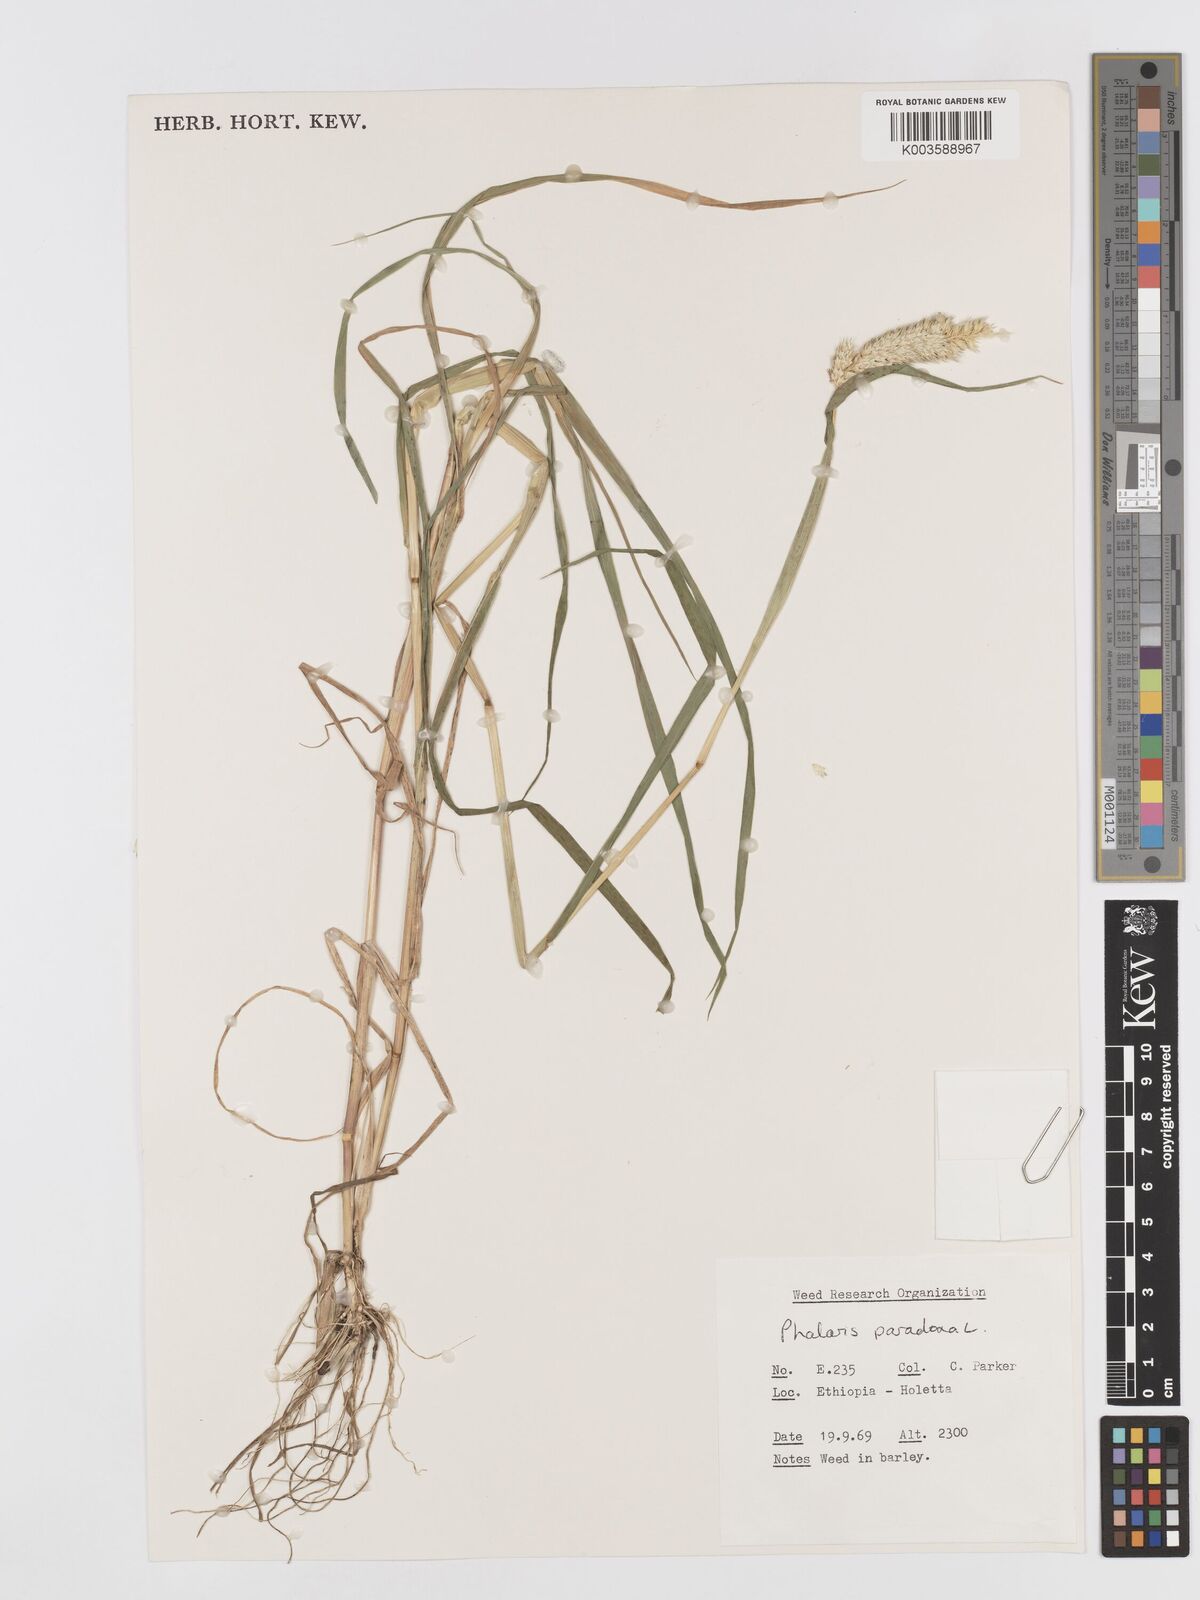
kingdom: Plantae
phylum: Tracheophyta
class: Liliopsida
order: Poales
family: Poaceae
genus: Phalaris
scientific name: Phalaris paradoxa
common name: Awned canary-grass
